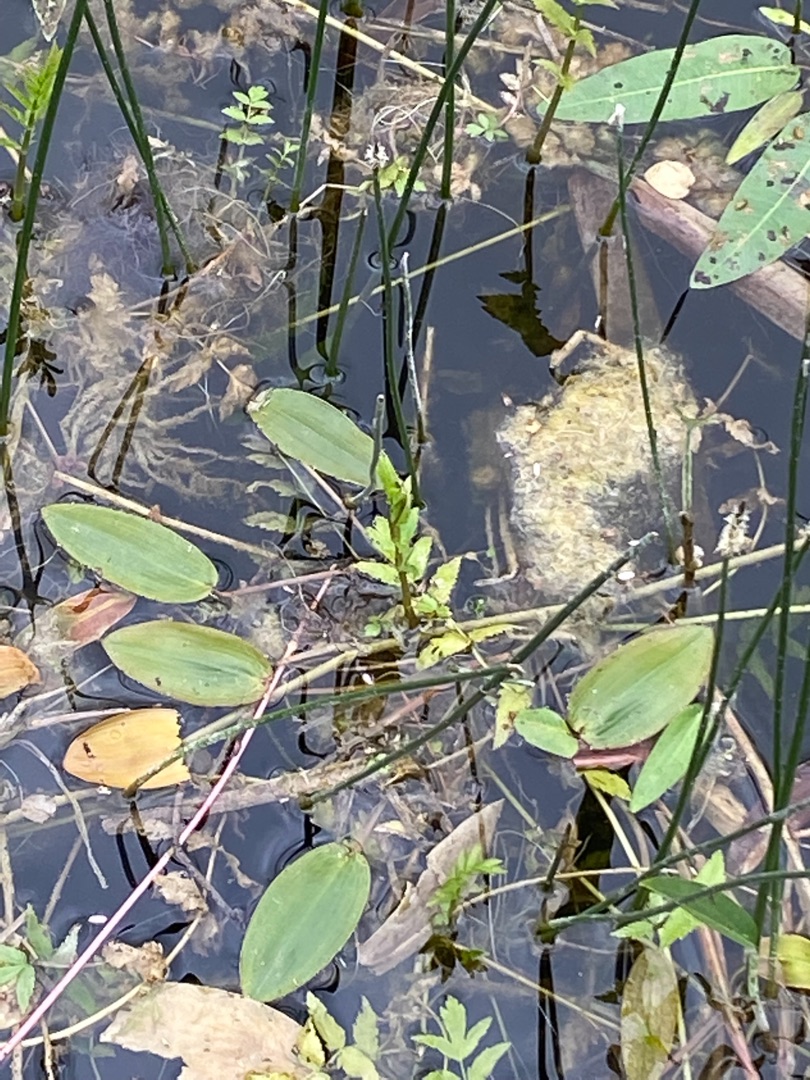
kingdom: Plantae
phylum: Tracheophyta
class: Liliopsida
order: Alismatales
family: Potamogetonaceae
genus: Potamogeton
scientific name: Potamogeton natans
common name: Svømmende vandaks
